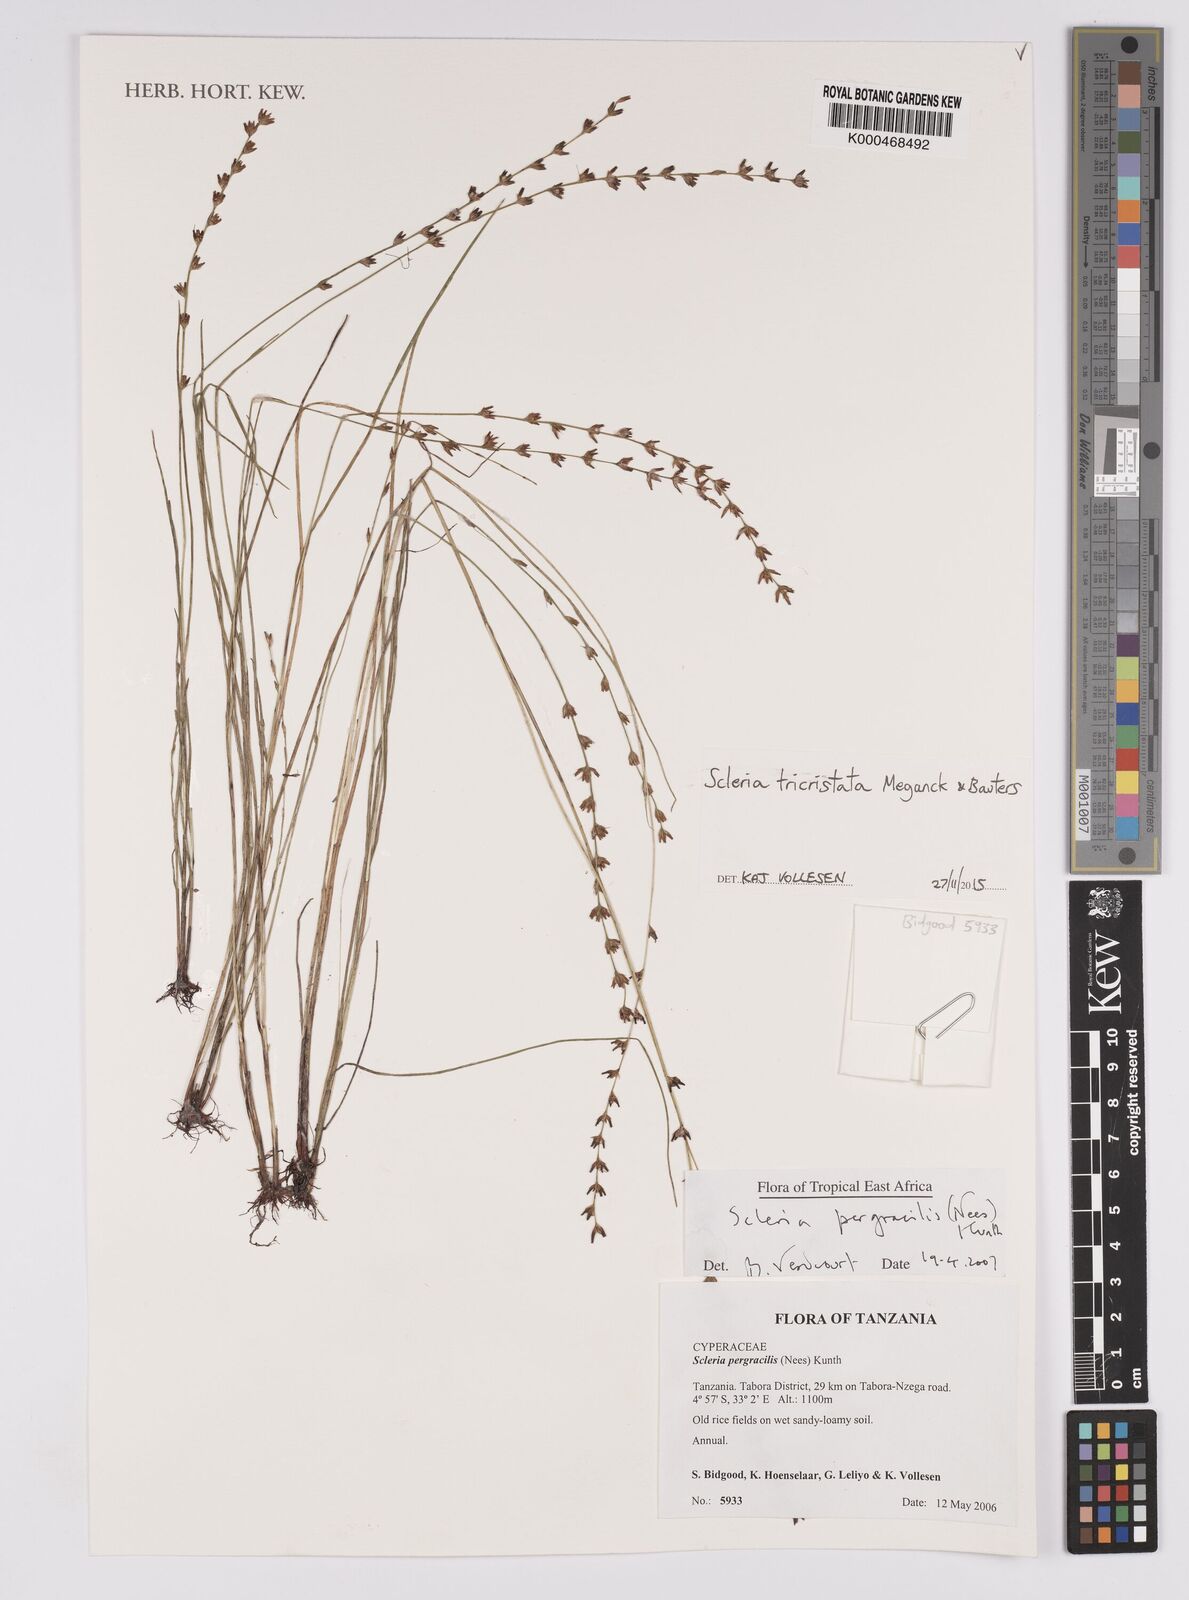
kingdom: Plantae
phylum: Tracheophyta
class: Liliopsida
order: Poales
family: Cyperaceae
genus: Scleria
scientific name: Scleria pergracilis
